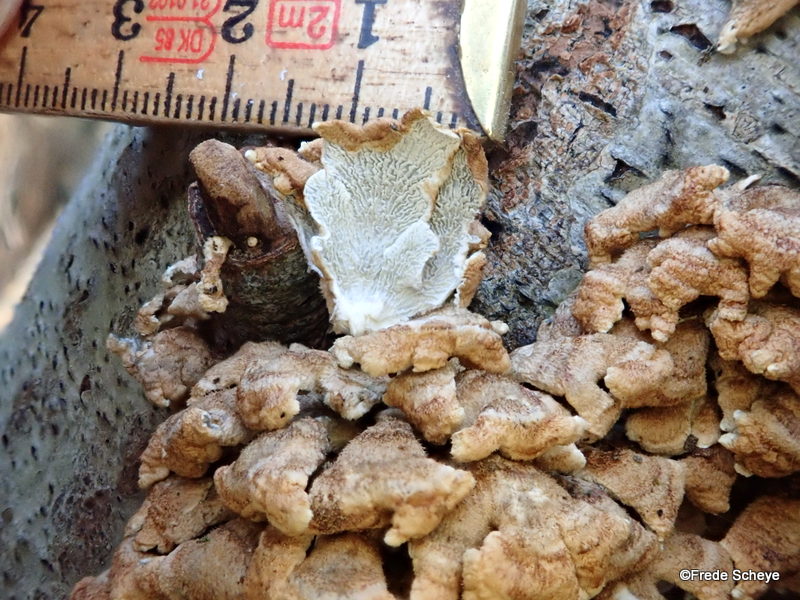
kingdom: Fungi
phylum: Basidiomycota
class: Agaricomycetes
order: Amylocorticiales
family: Amylocorticiaceae
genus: Plicaturopsis
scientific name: Plicaturopsis crispa
